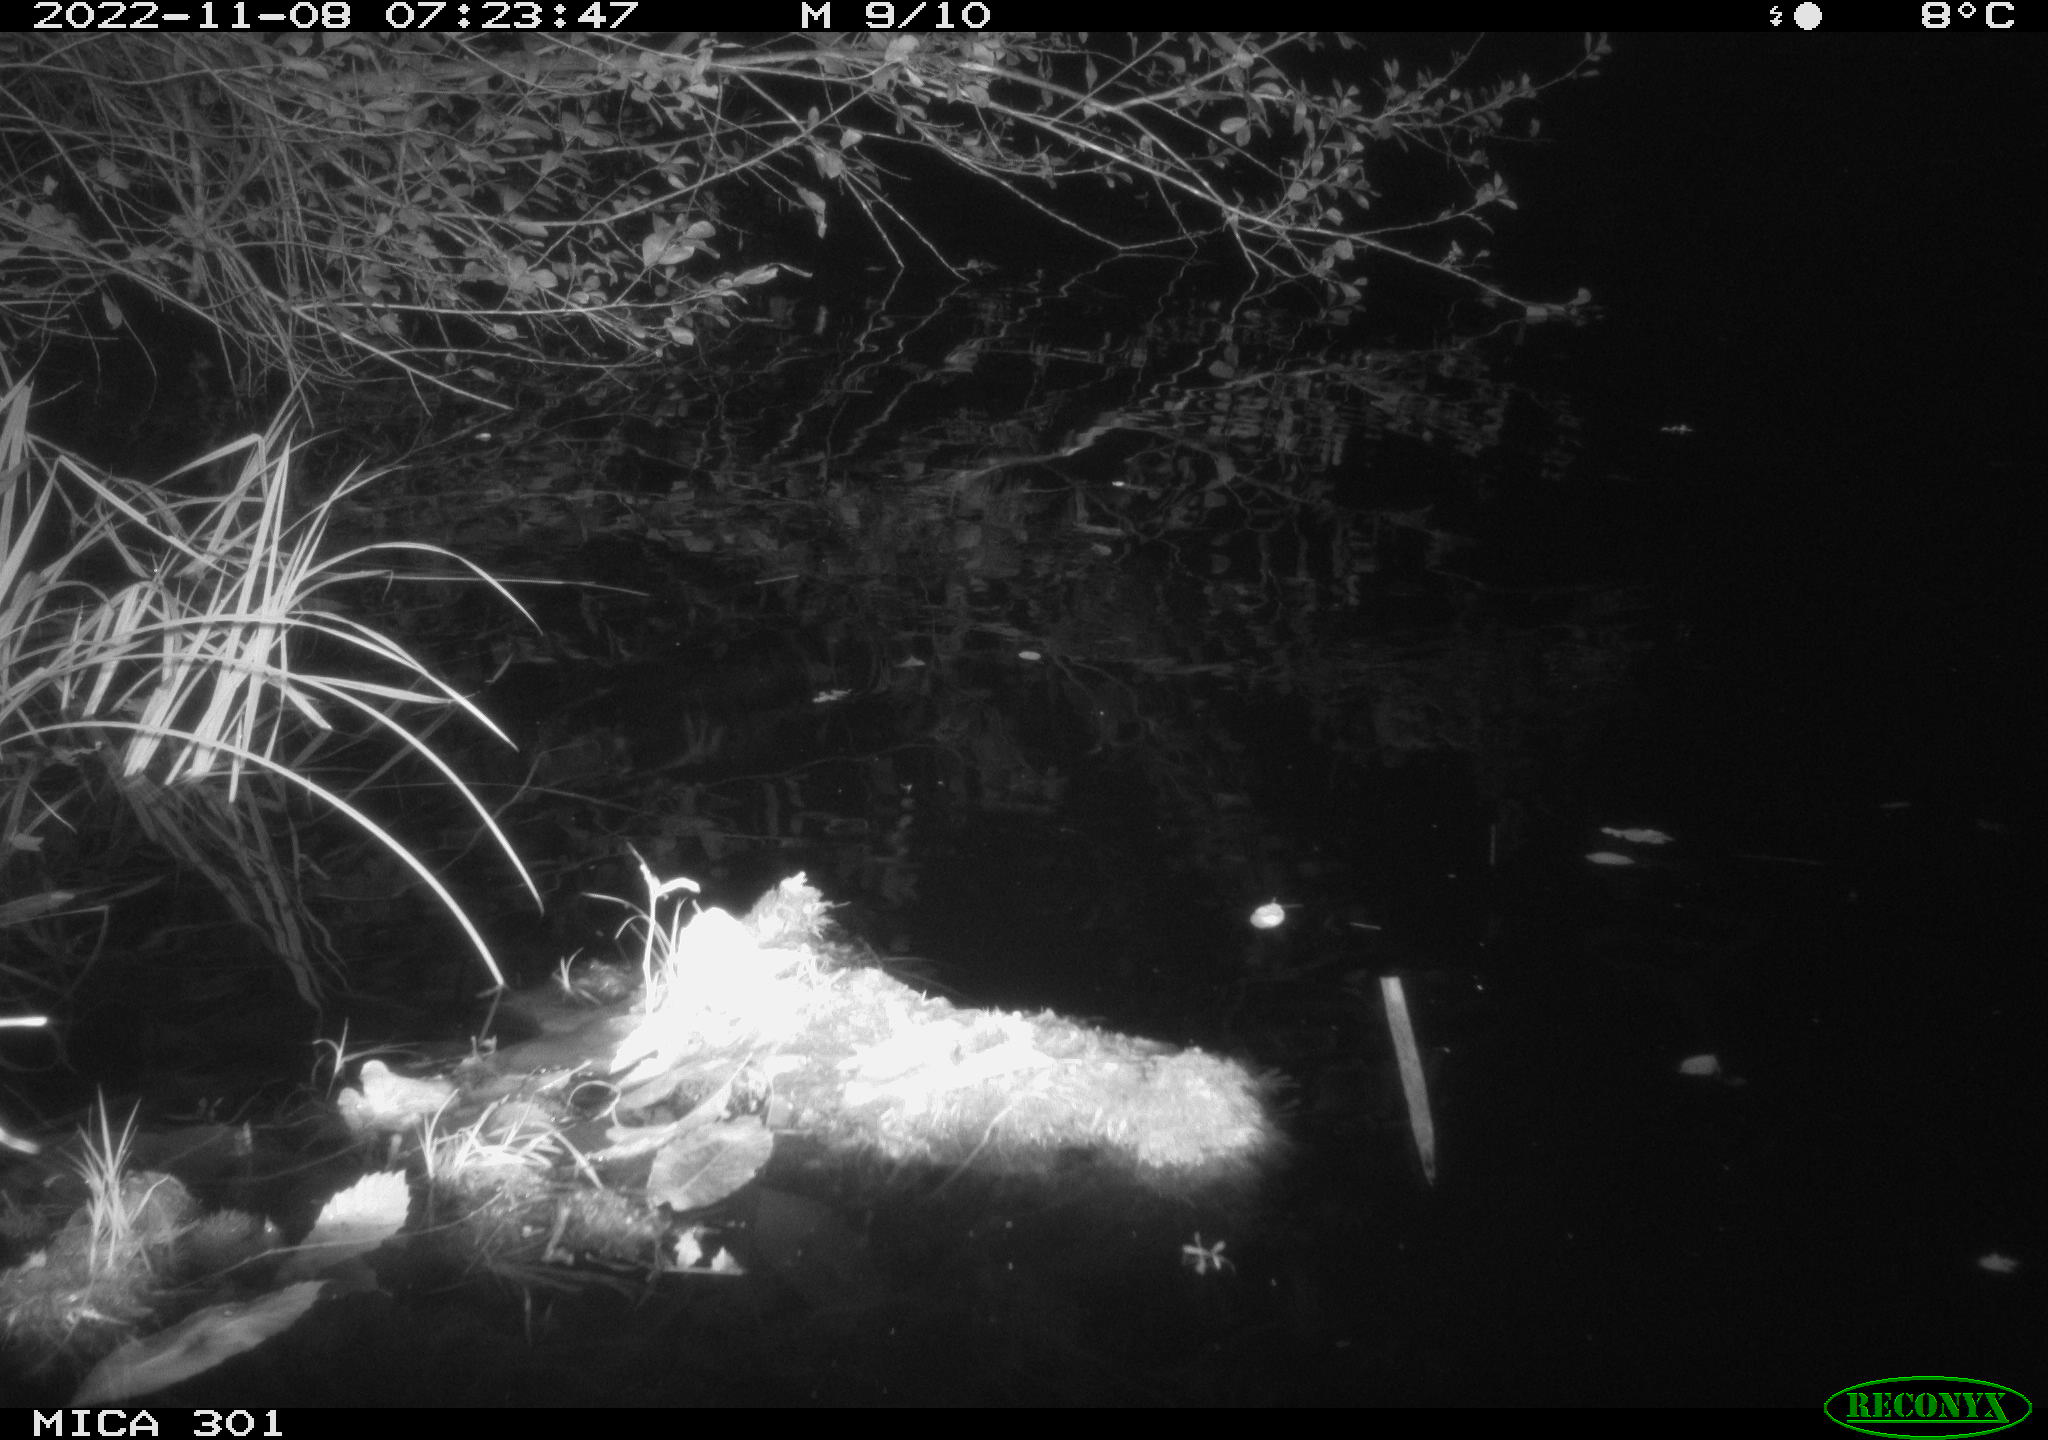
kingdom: Animalia
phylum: Chordata
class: Mammalia
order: Rodentia
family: Castoridae
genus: Castor
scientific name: Castor fiber
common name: Eurasian beaver
